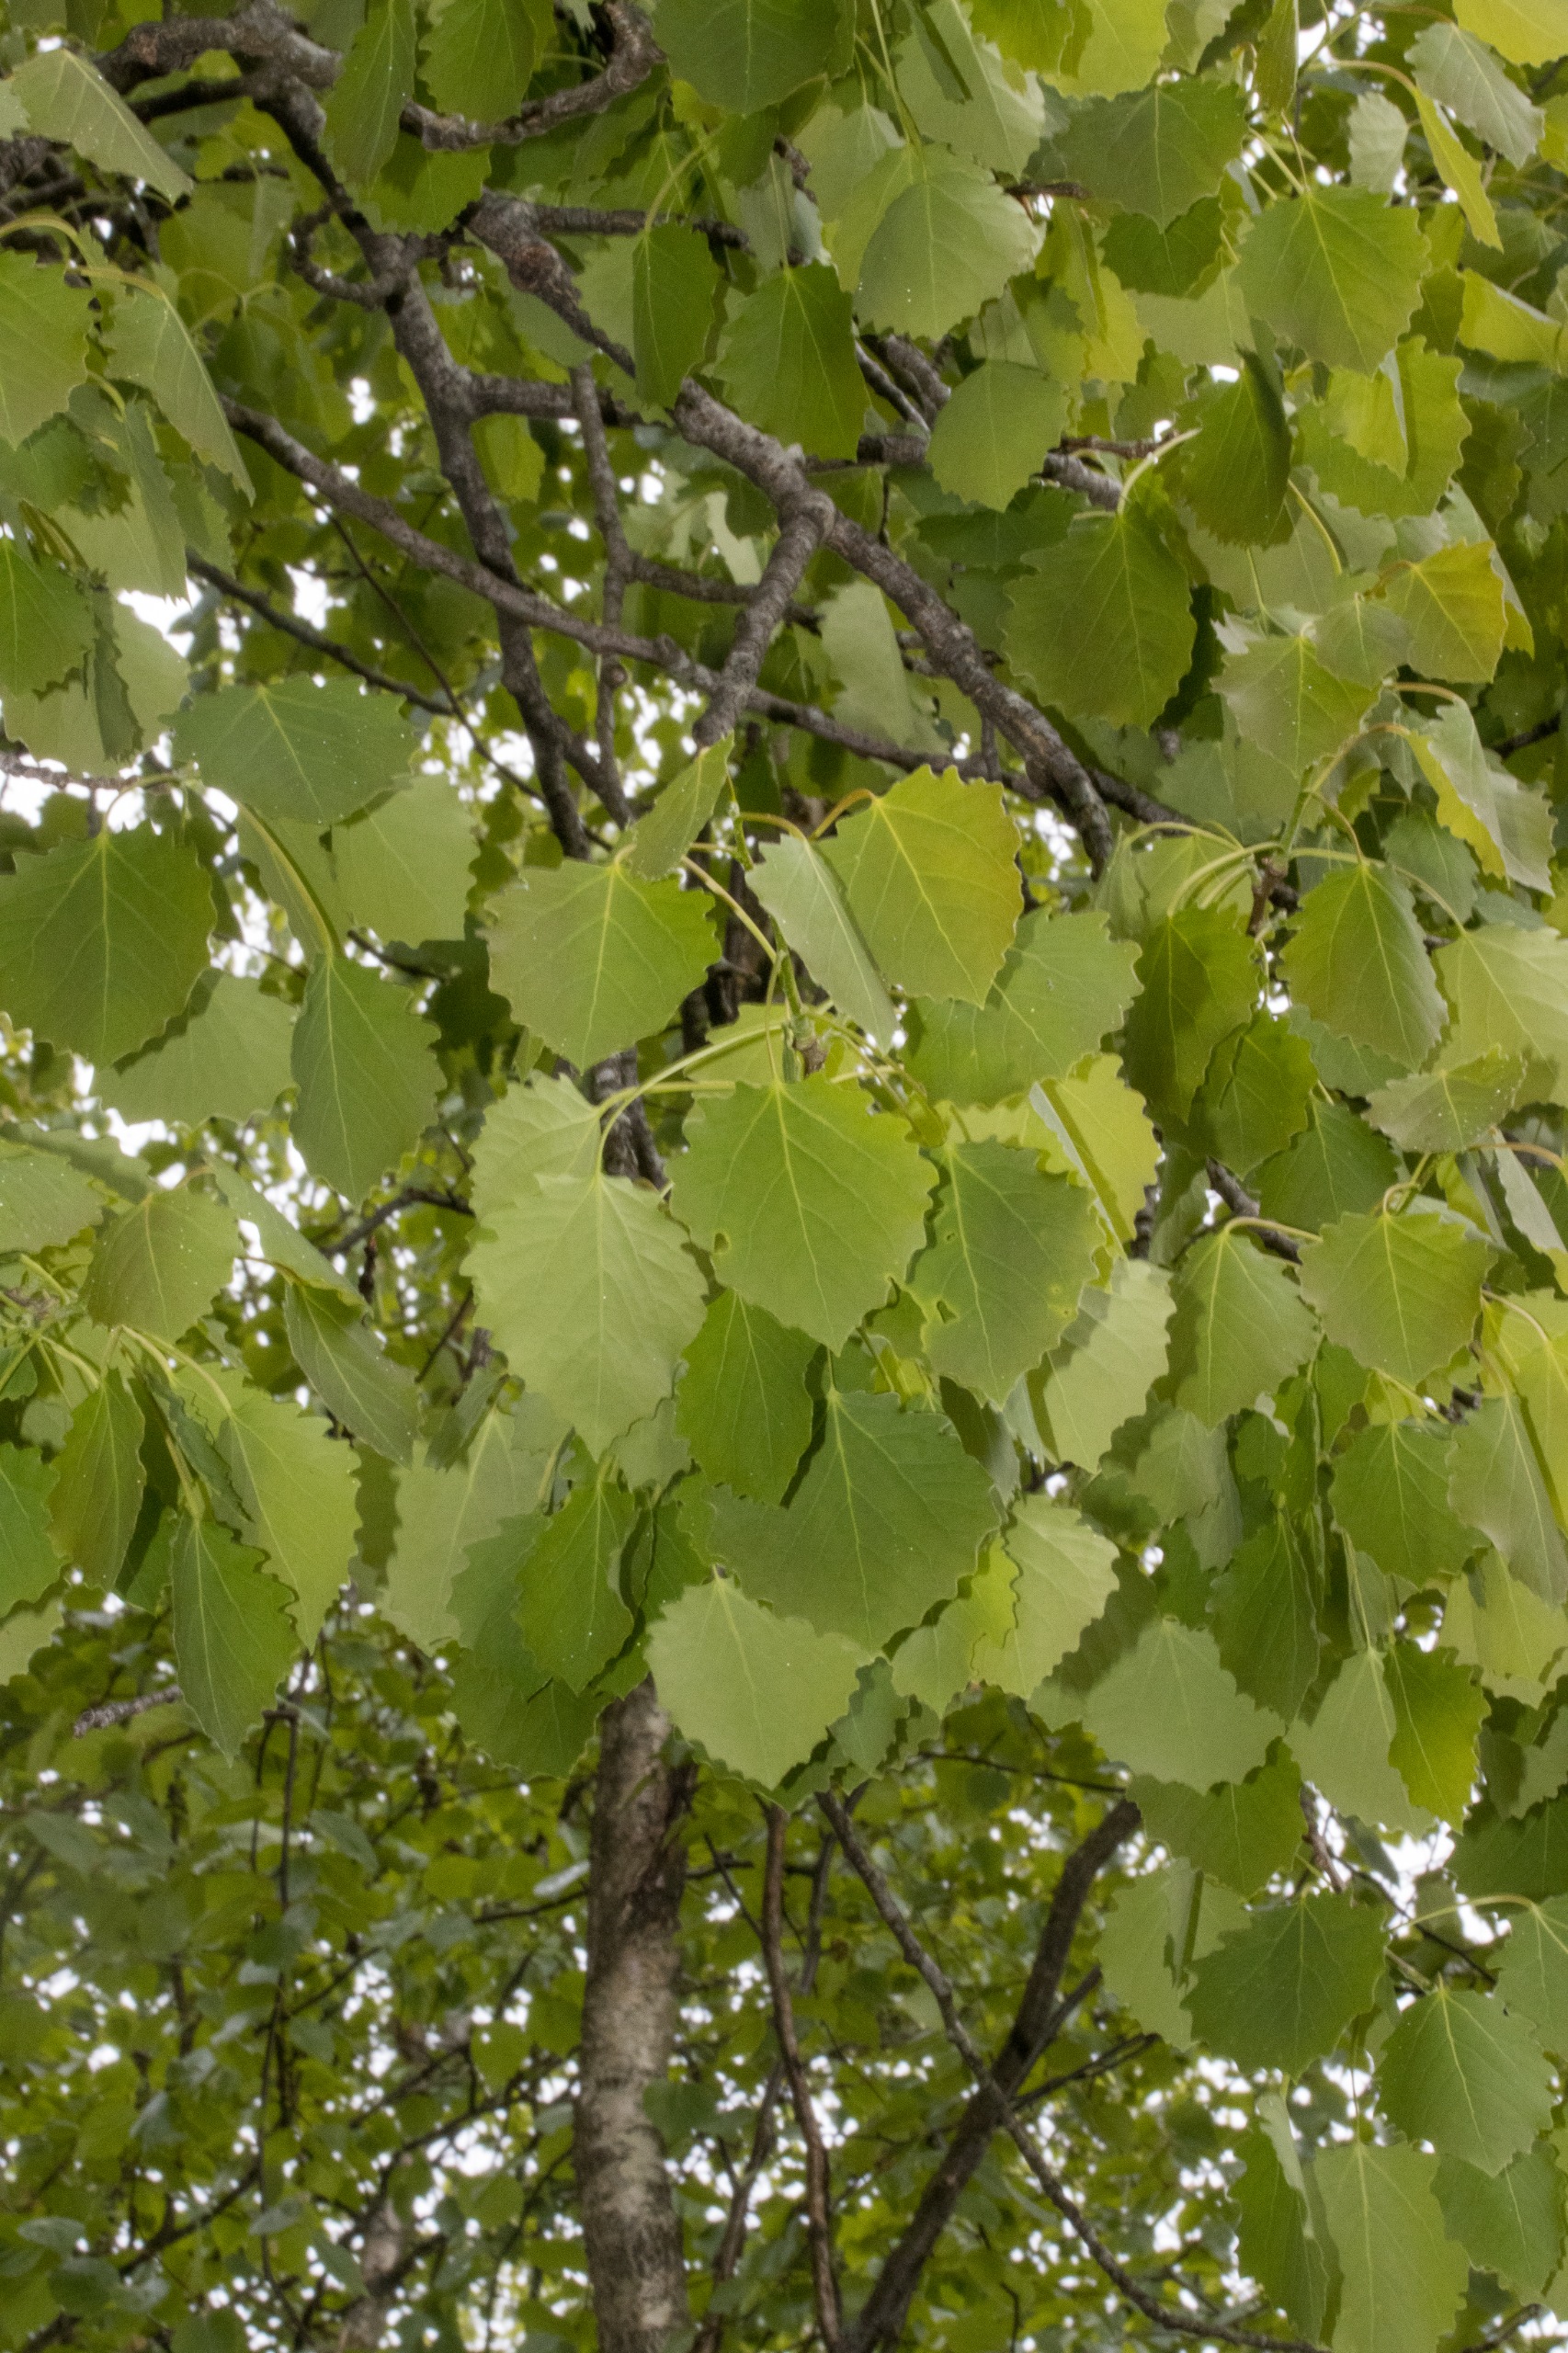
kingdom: Plantae
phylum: Tracheophyta
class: Magnoliopsida
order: Malpighiales
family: Salicaceae
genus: Populus
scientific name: Populus tremula
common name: Bævreasp
